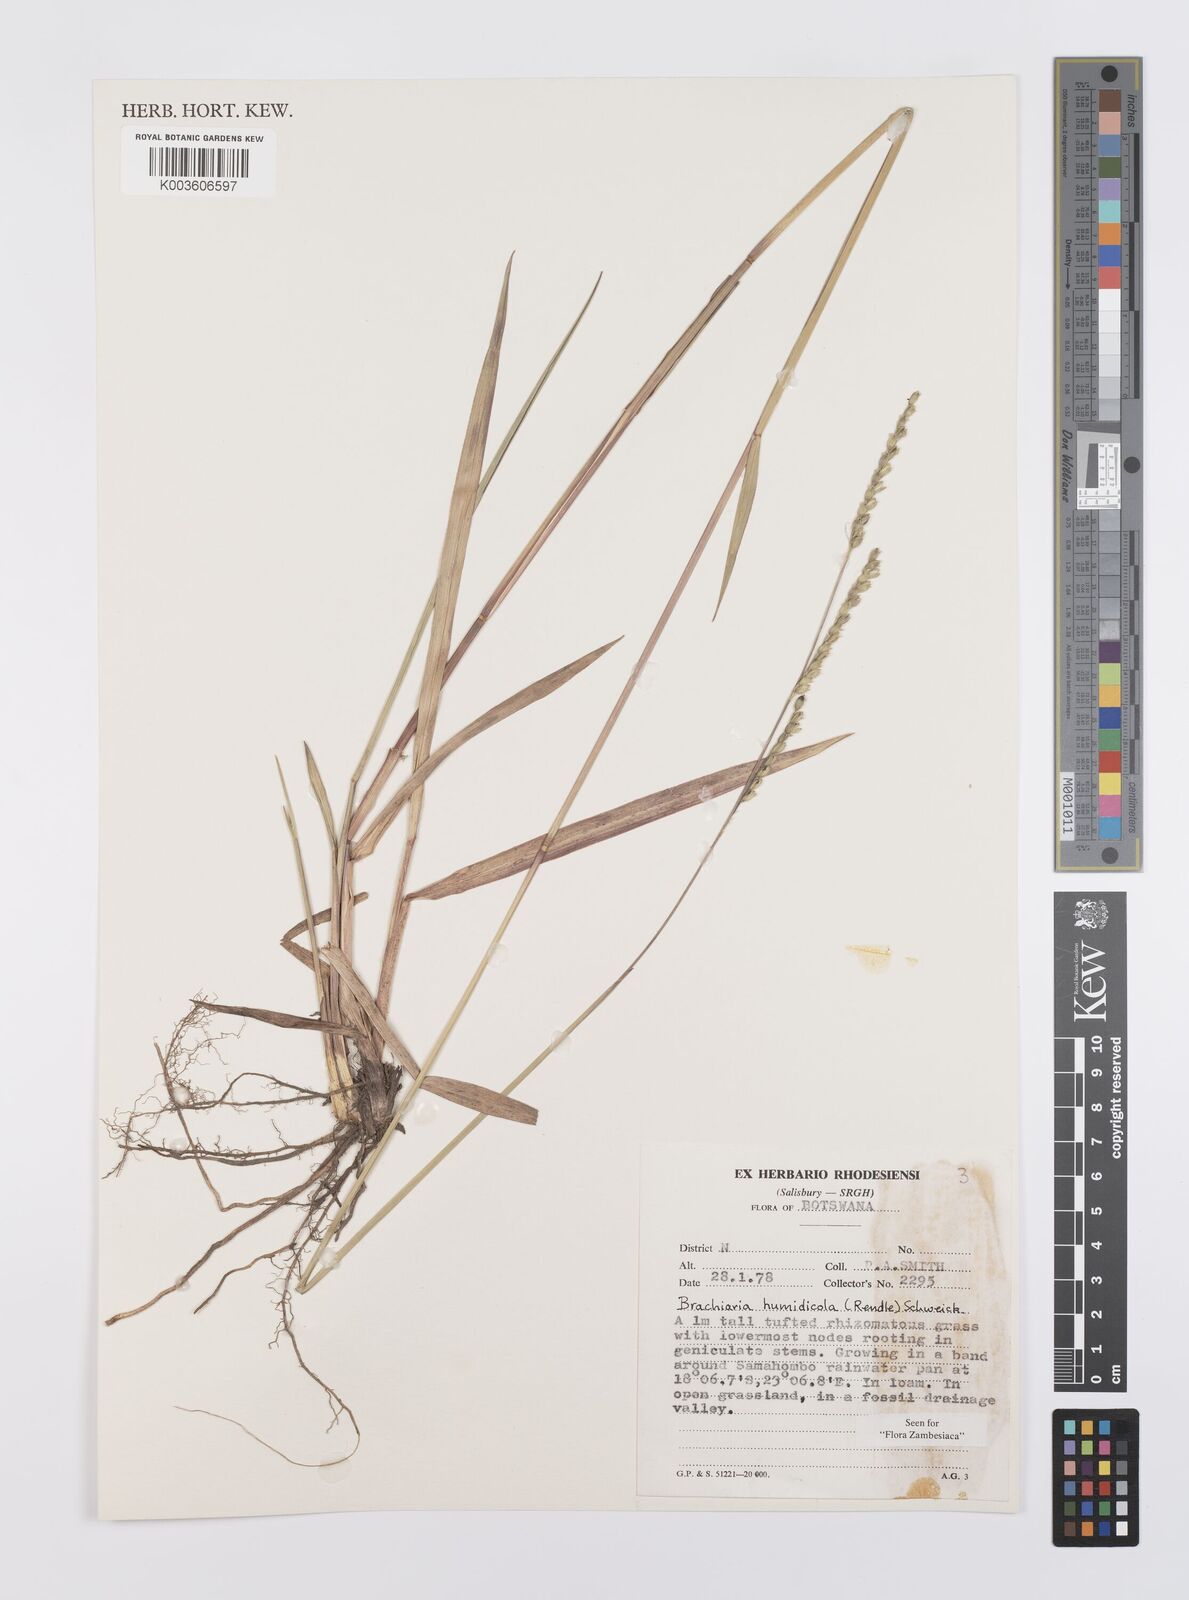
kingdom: Plantae
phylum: Tracheophyta
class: Liliopsida
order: Poales
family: Poaceae
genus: Urochloa
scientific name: Urochloa dictyoneura
